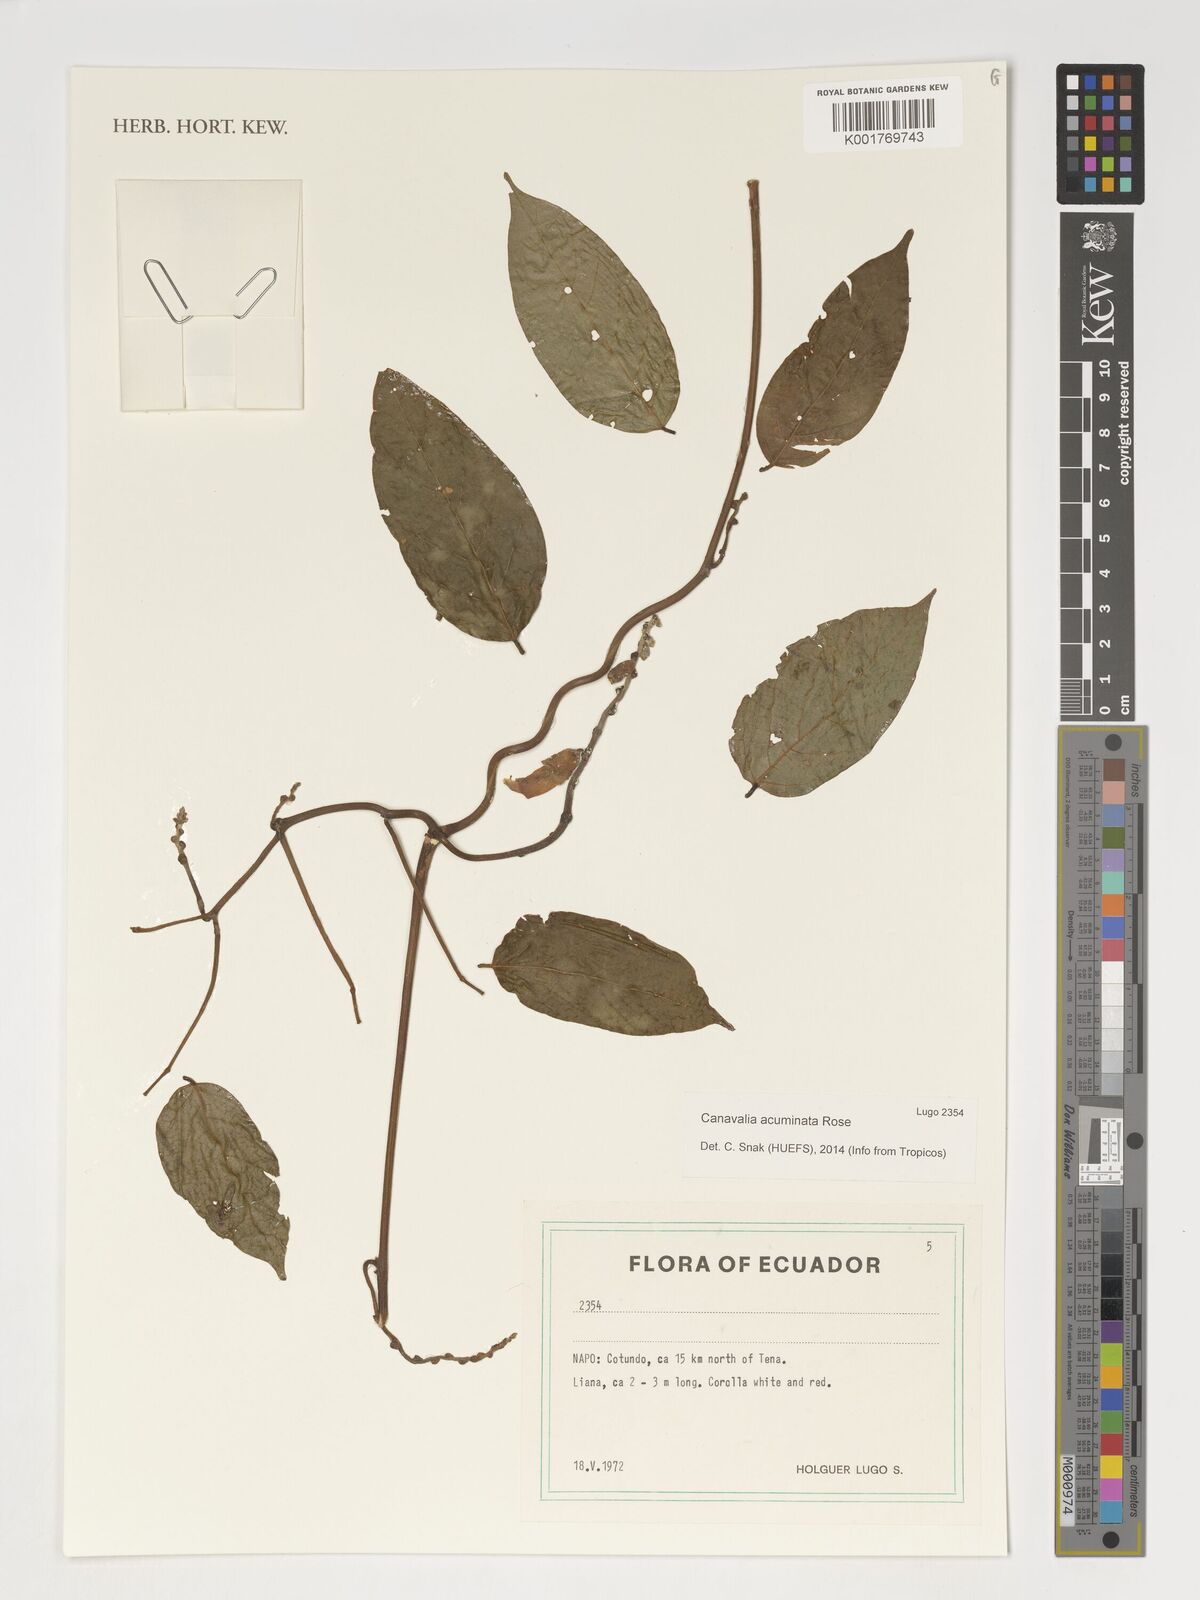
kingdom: Plantae
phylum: Tracheophyta
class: Magnoliopsida
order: Fabales
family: Fabaceae
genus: Canavalia
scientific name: Canavalia acuminata
